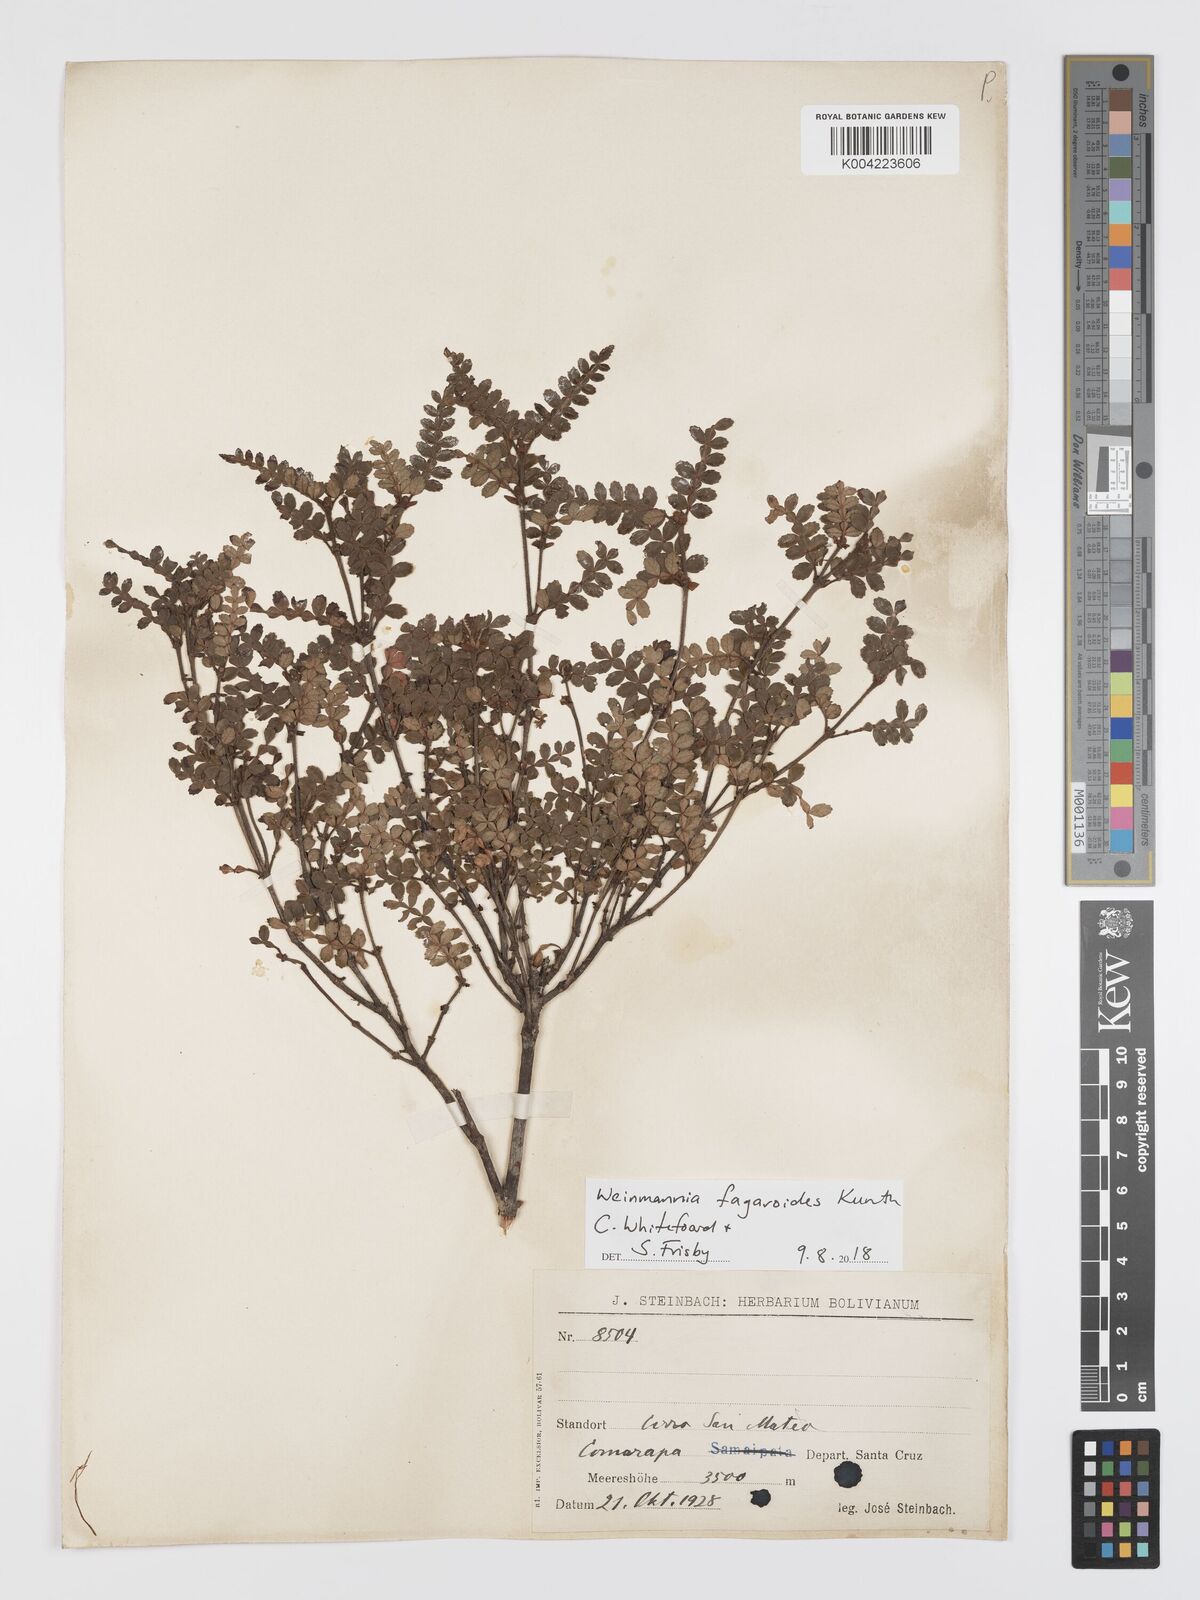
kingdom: Plantae
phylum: Tracheophyta
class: Magnoliopsida
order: Oxalidales
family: Cunoniaceae
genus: Weinmannia
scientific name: Weinmannia fagaroides
